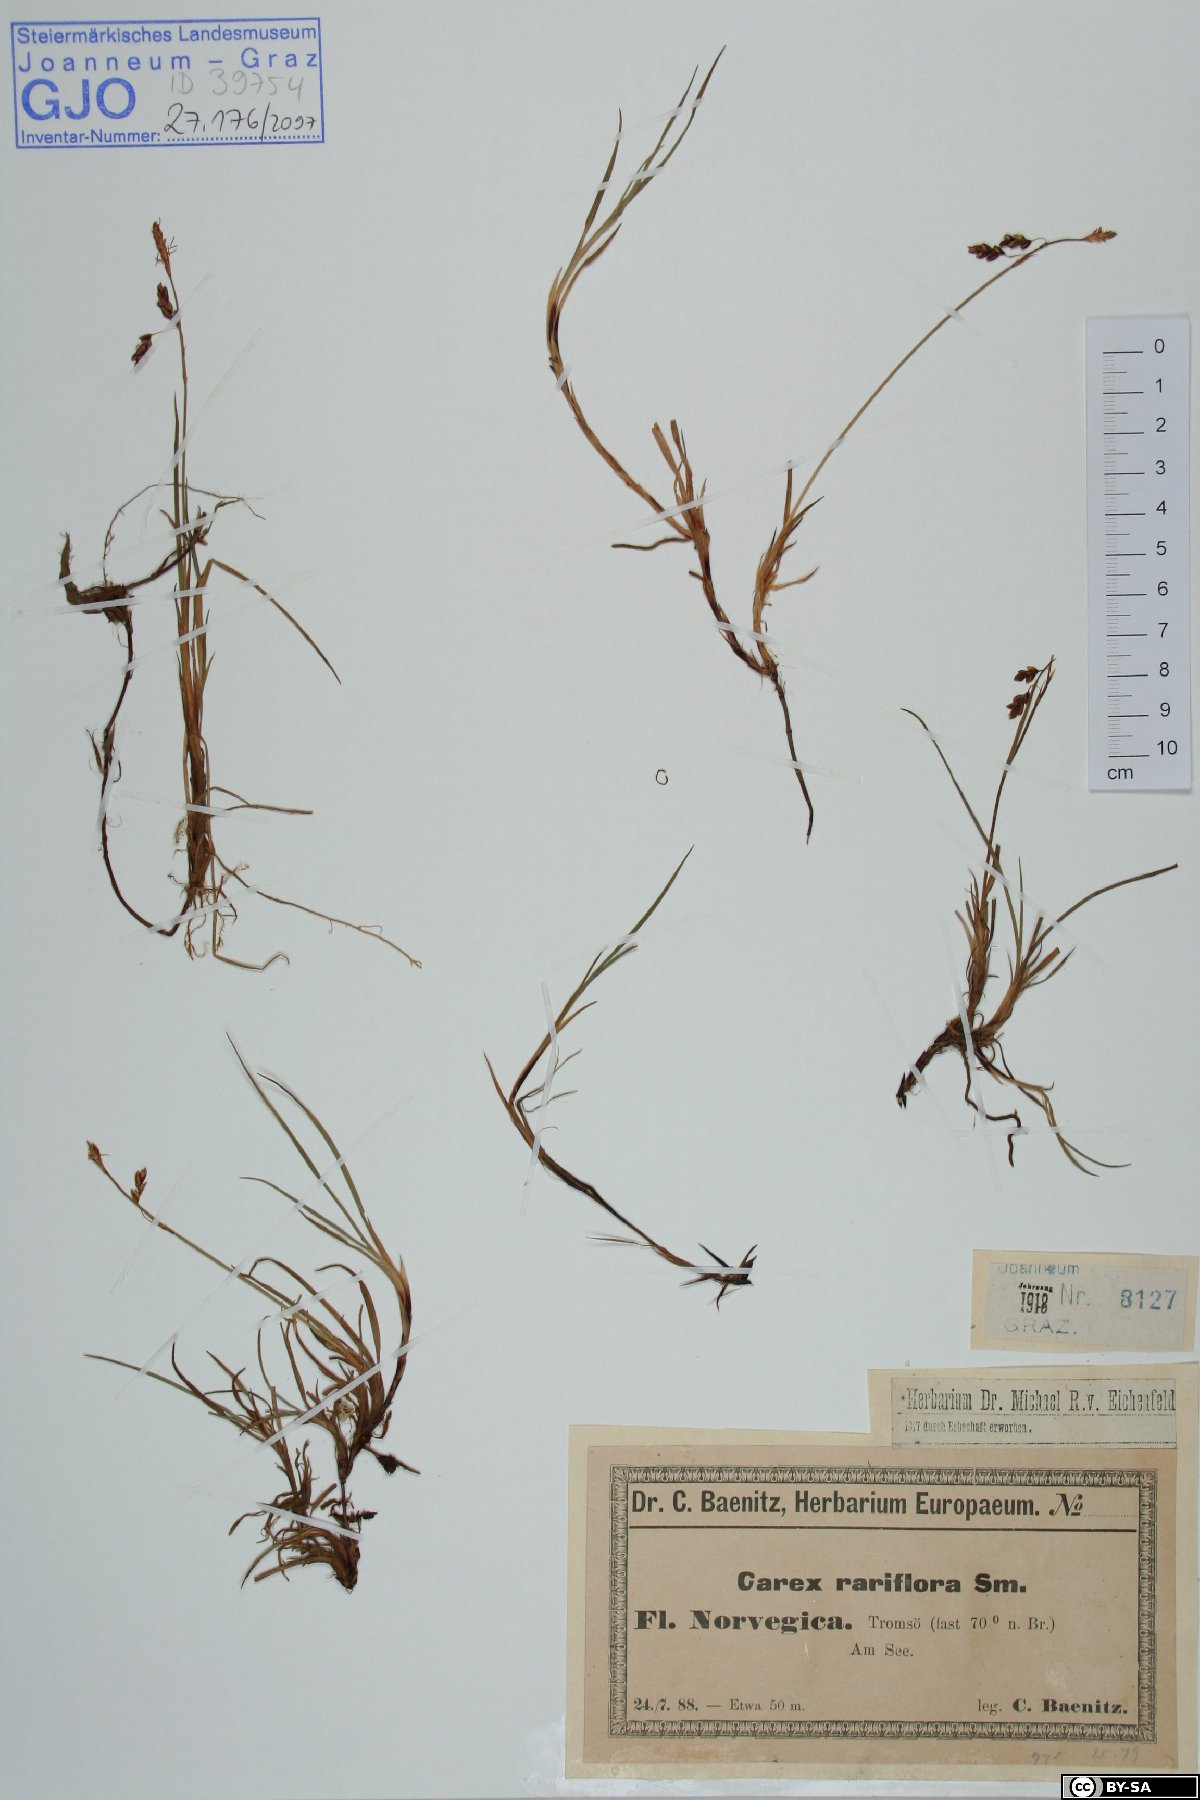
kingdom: Plantae
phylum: Tracheophyta
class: Liliopsida
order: Poales
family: Cyperaceae
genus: Carex
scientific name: Carex rariflora
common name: Loose-flowered alpine sedge
